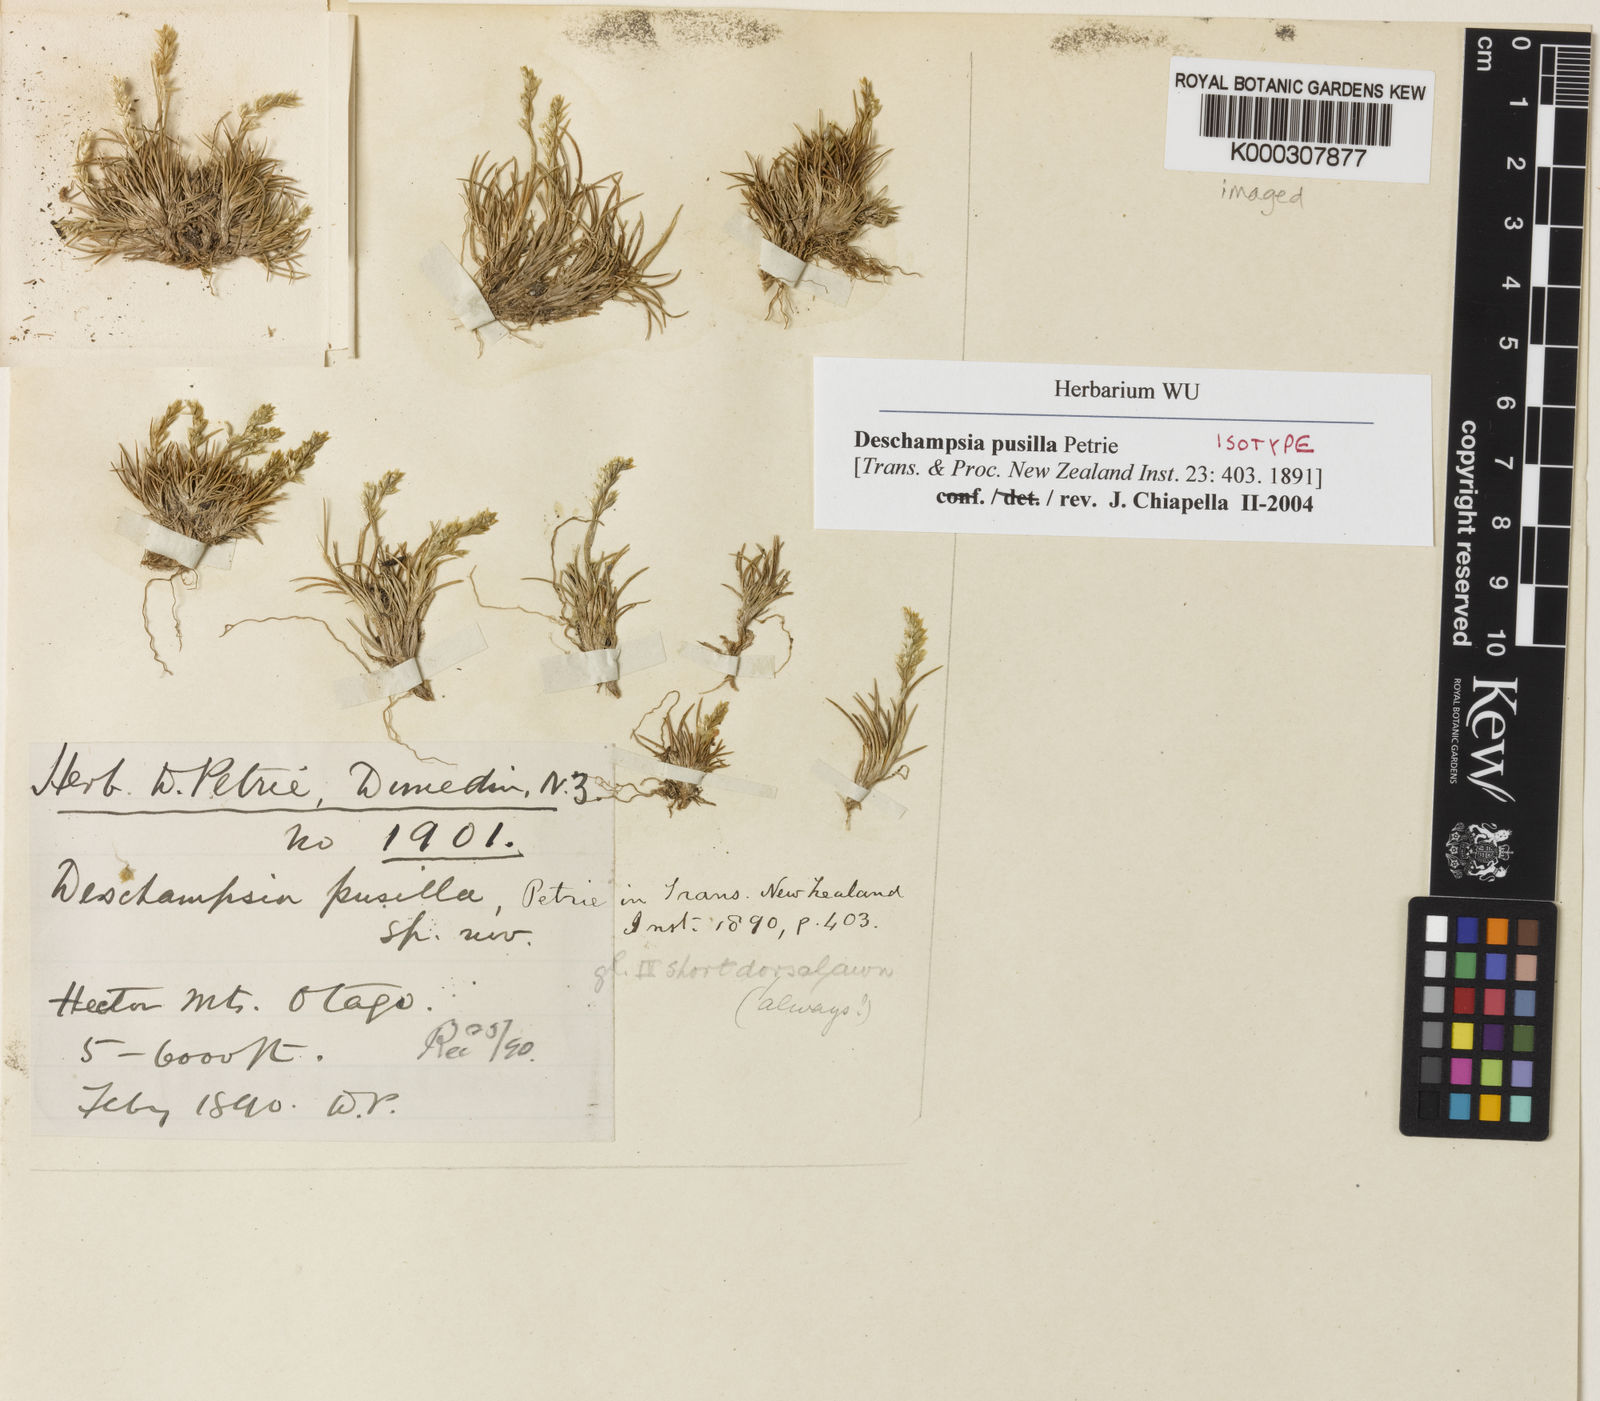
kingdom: Plantae
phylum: Tracheophyta
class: Liliopsida
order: Poales
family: Poaceae
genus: Deschampsia
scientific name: Deschampsia pusilla
